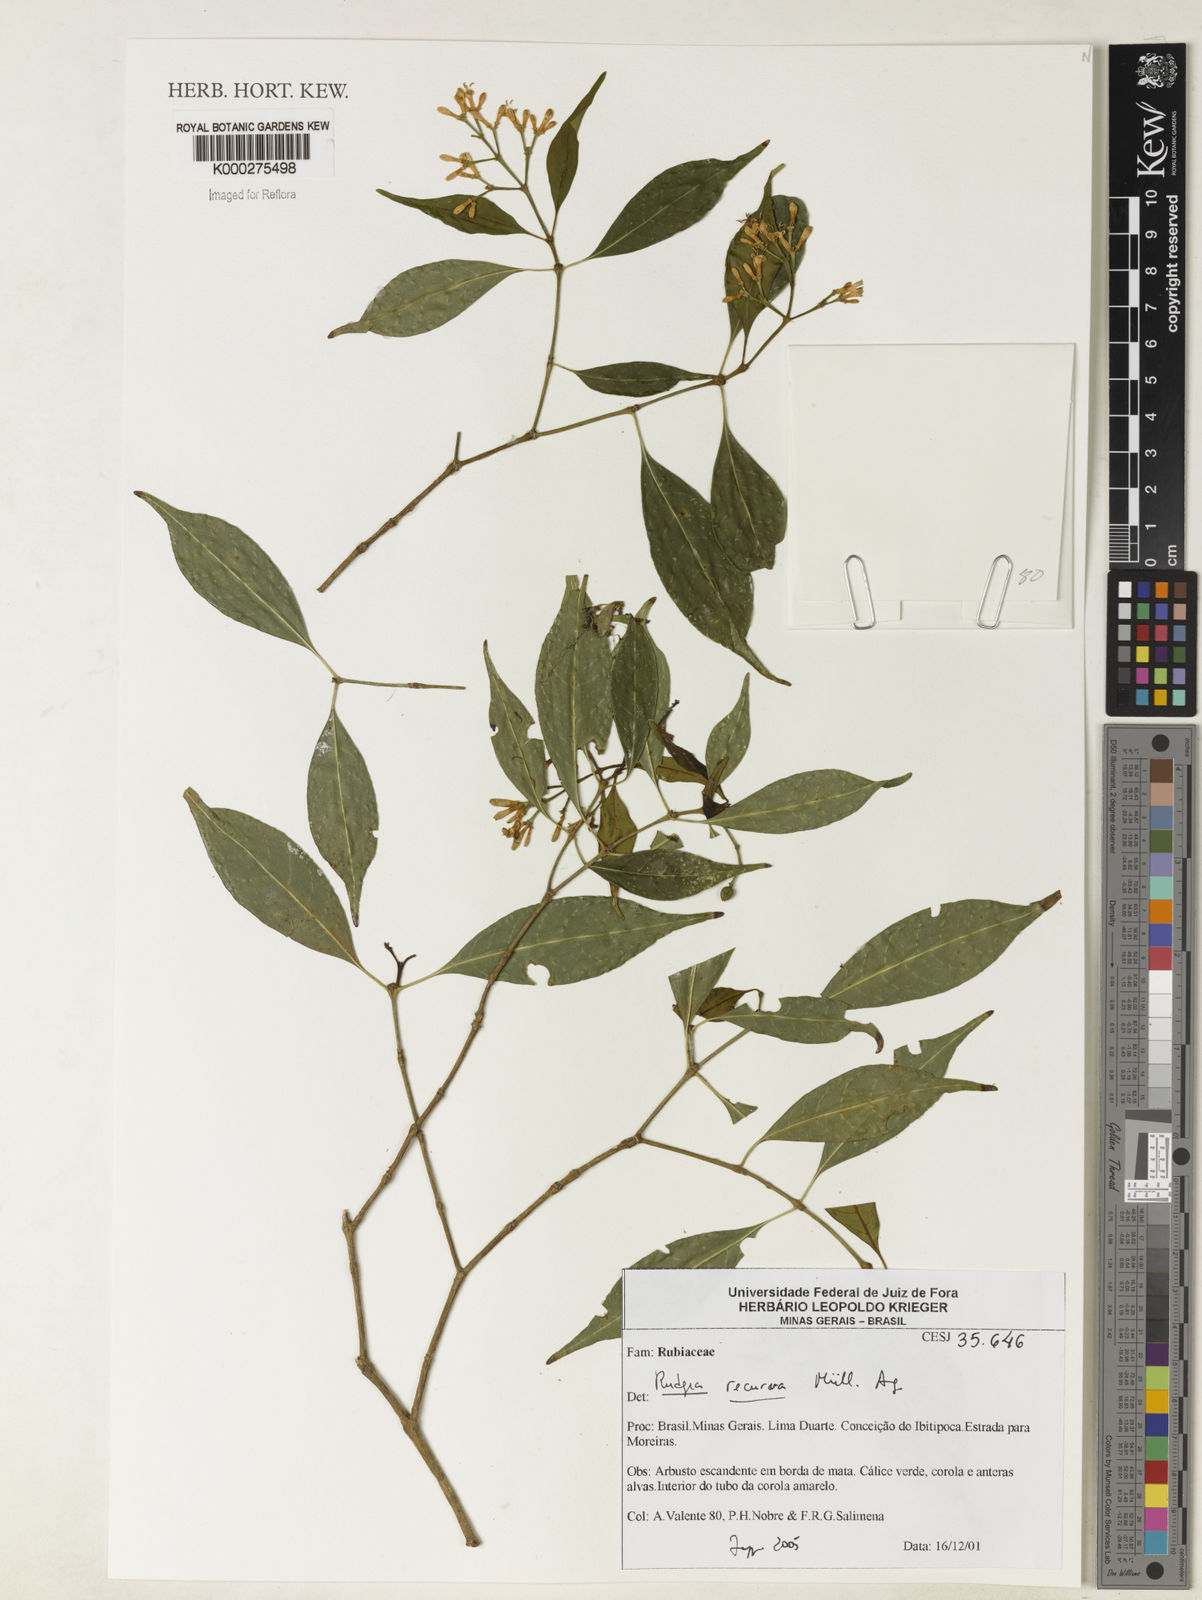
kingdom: Plantae
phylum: Tracheophyta
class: Magnoliopsida
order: Gentianales
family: Rubiaceae
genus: Rudgea
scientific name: Rudgea recurva
